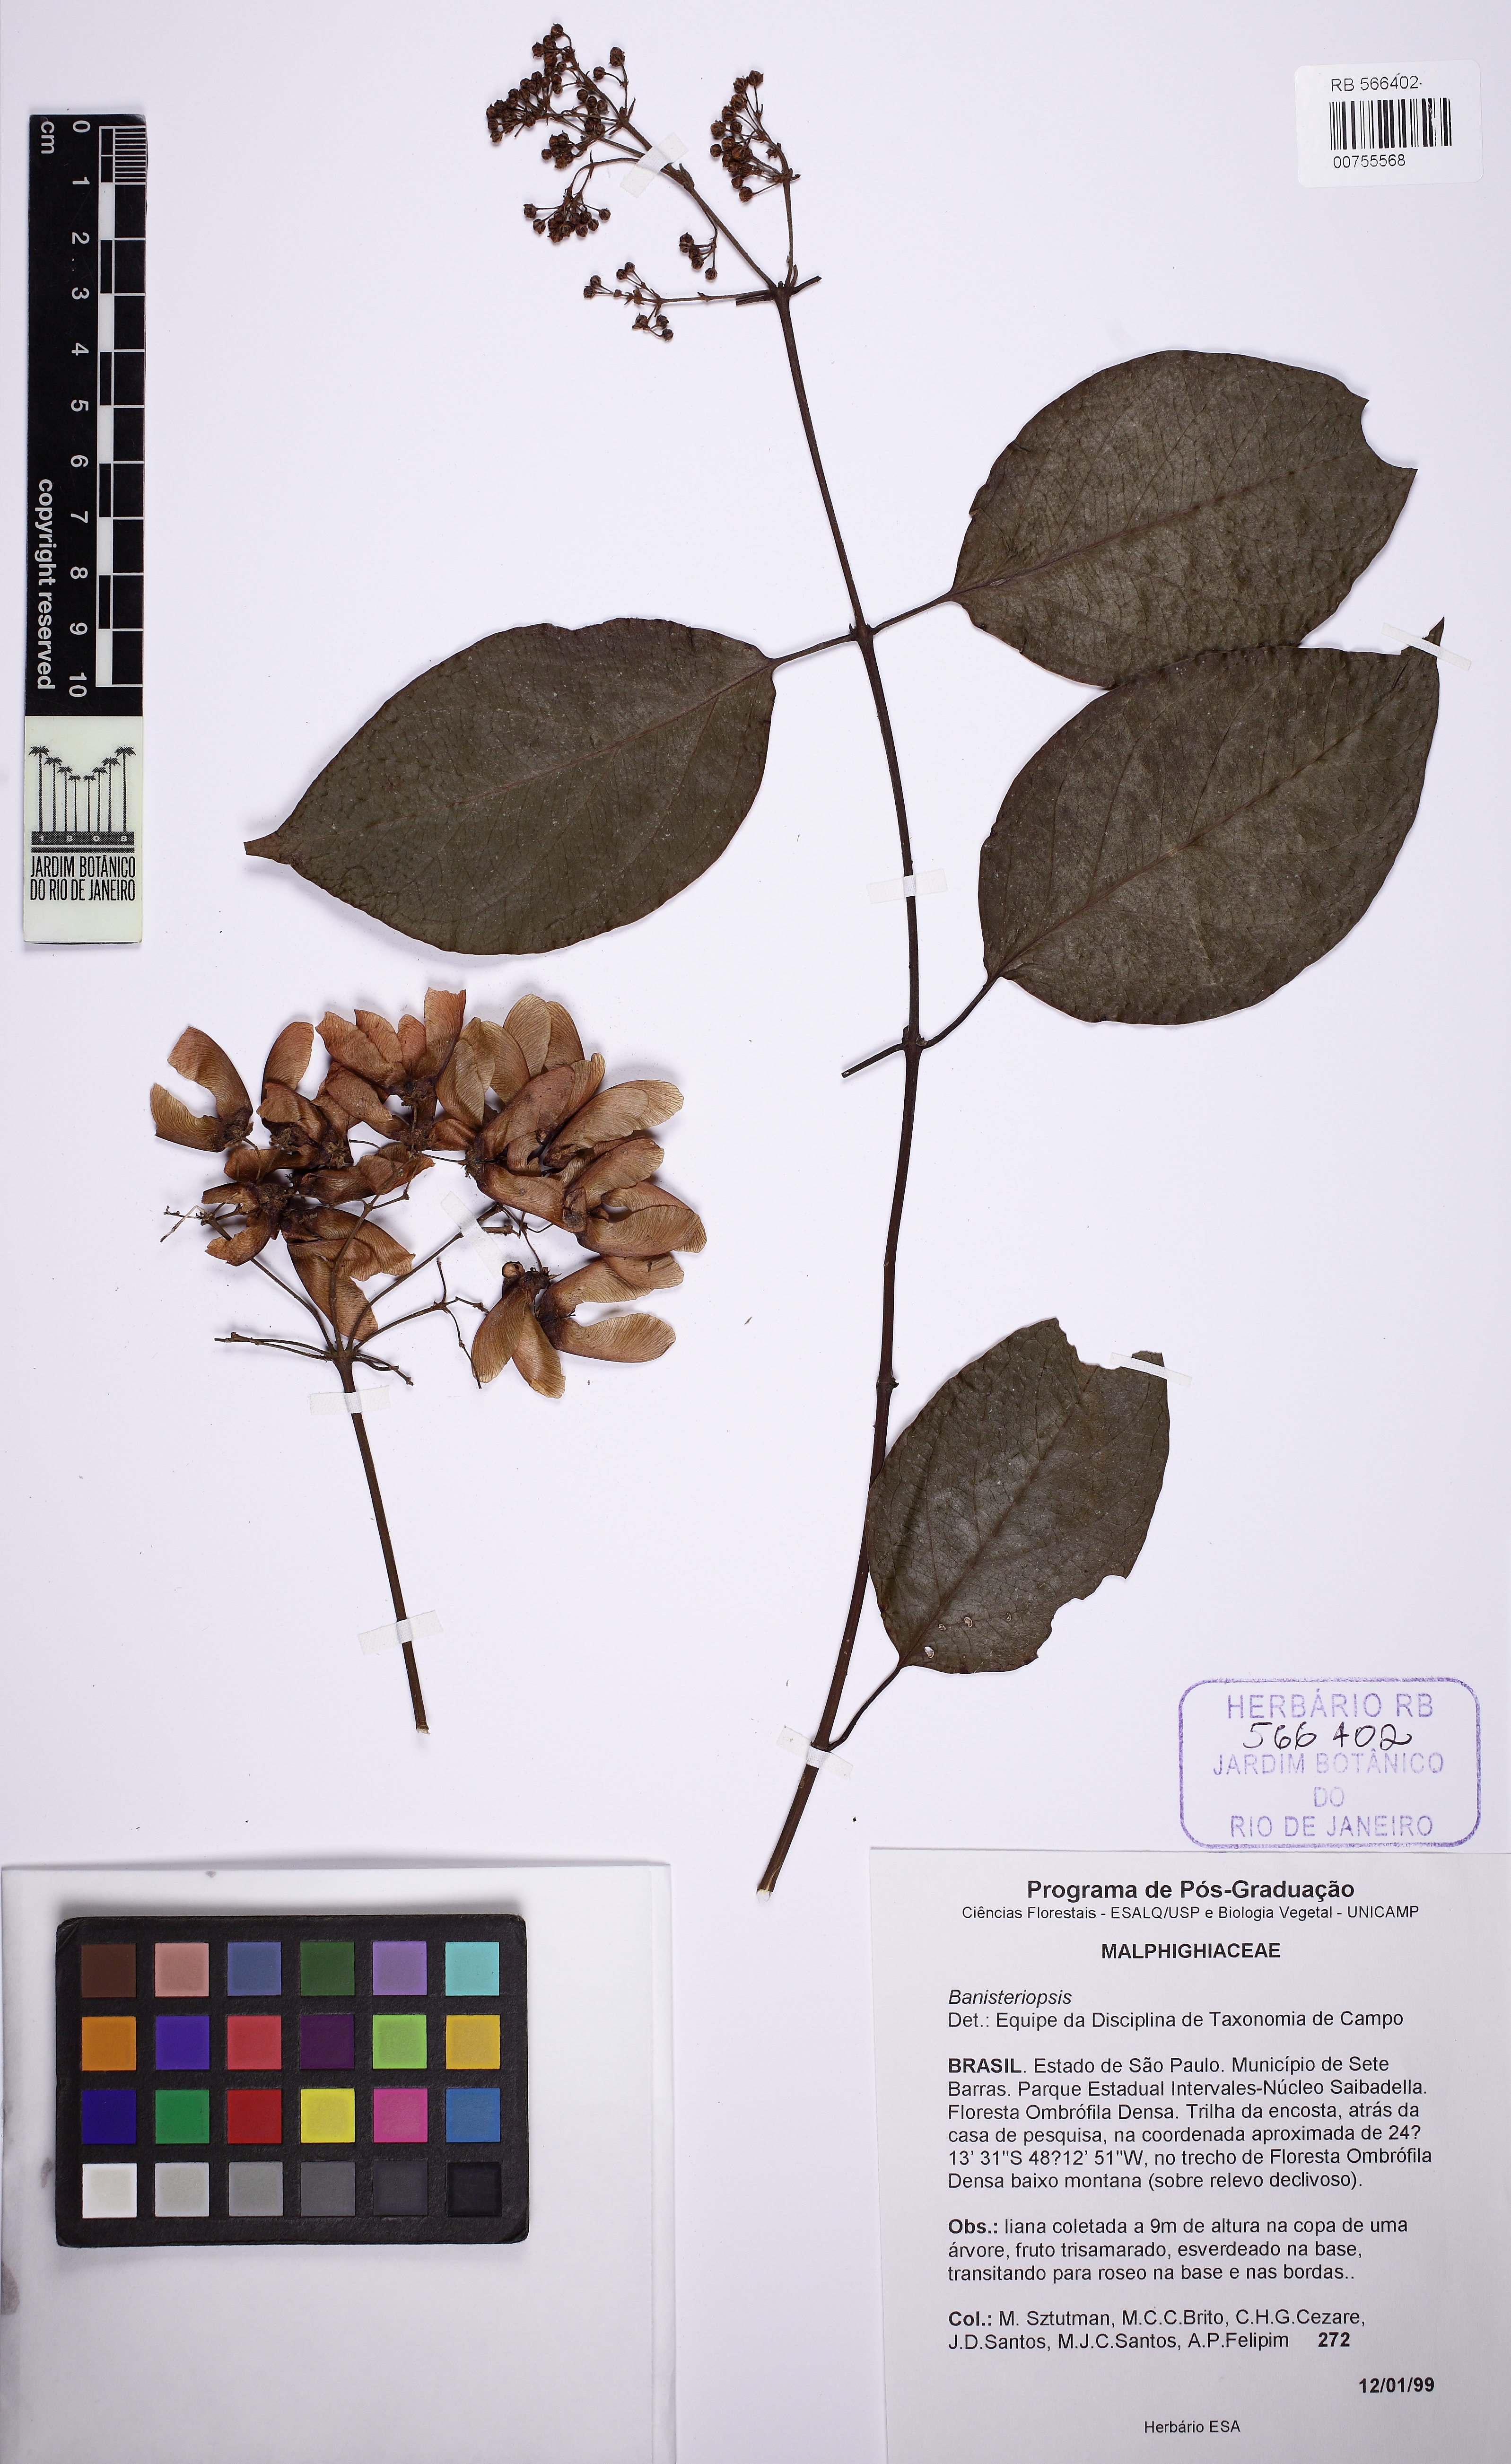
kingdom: Plantae
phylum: Tracheophyta
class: Magnoliopsida
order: Malpighiales
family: Malpighiaceae
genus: Heteropterys
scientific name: Heteropterys
